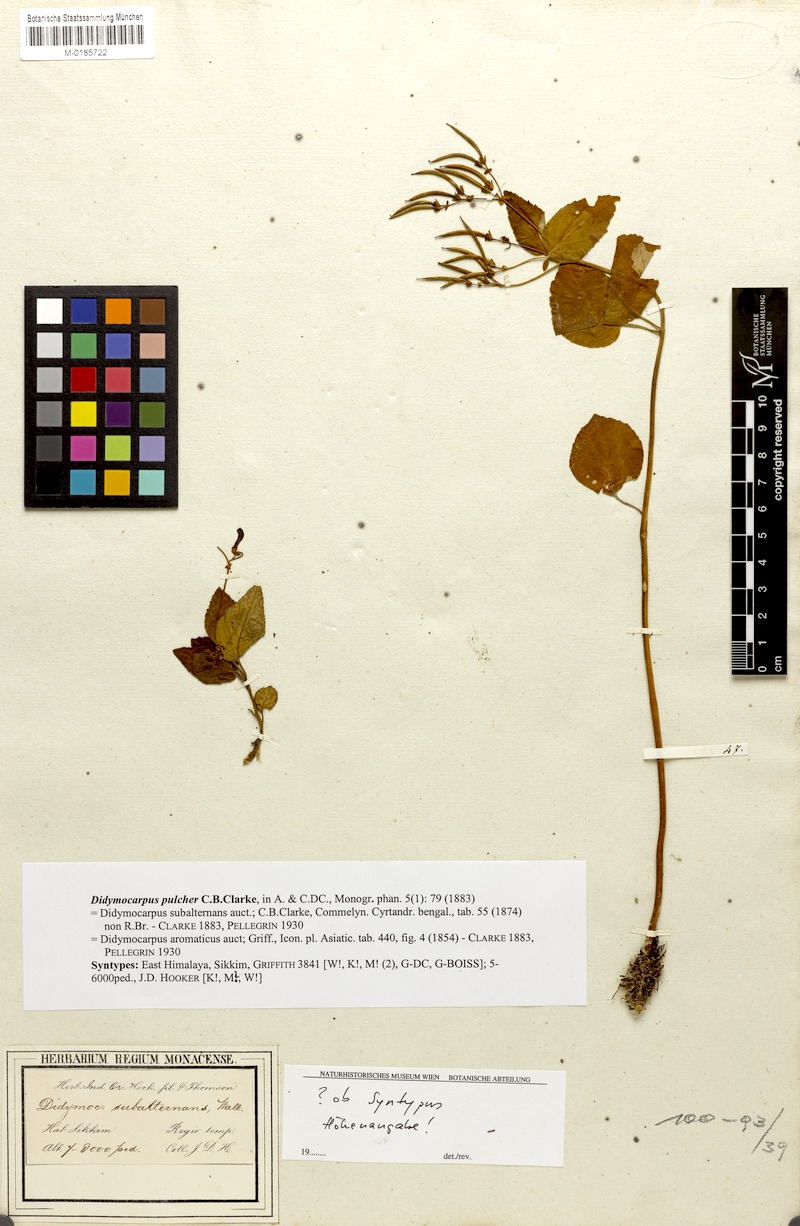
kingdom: Plantae
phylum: Tracheophyta
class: Magnoliopsida
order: Lamiales
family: Gesneriaceae
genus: Didymocarpus
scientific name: Didymocarpus punduanus
